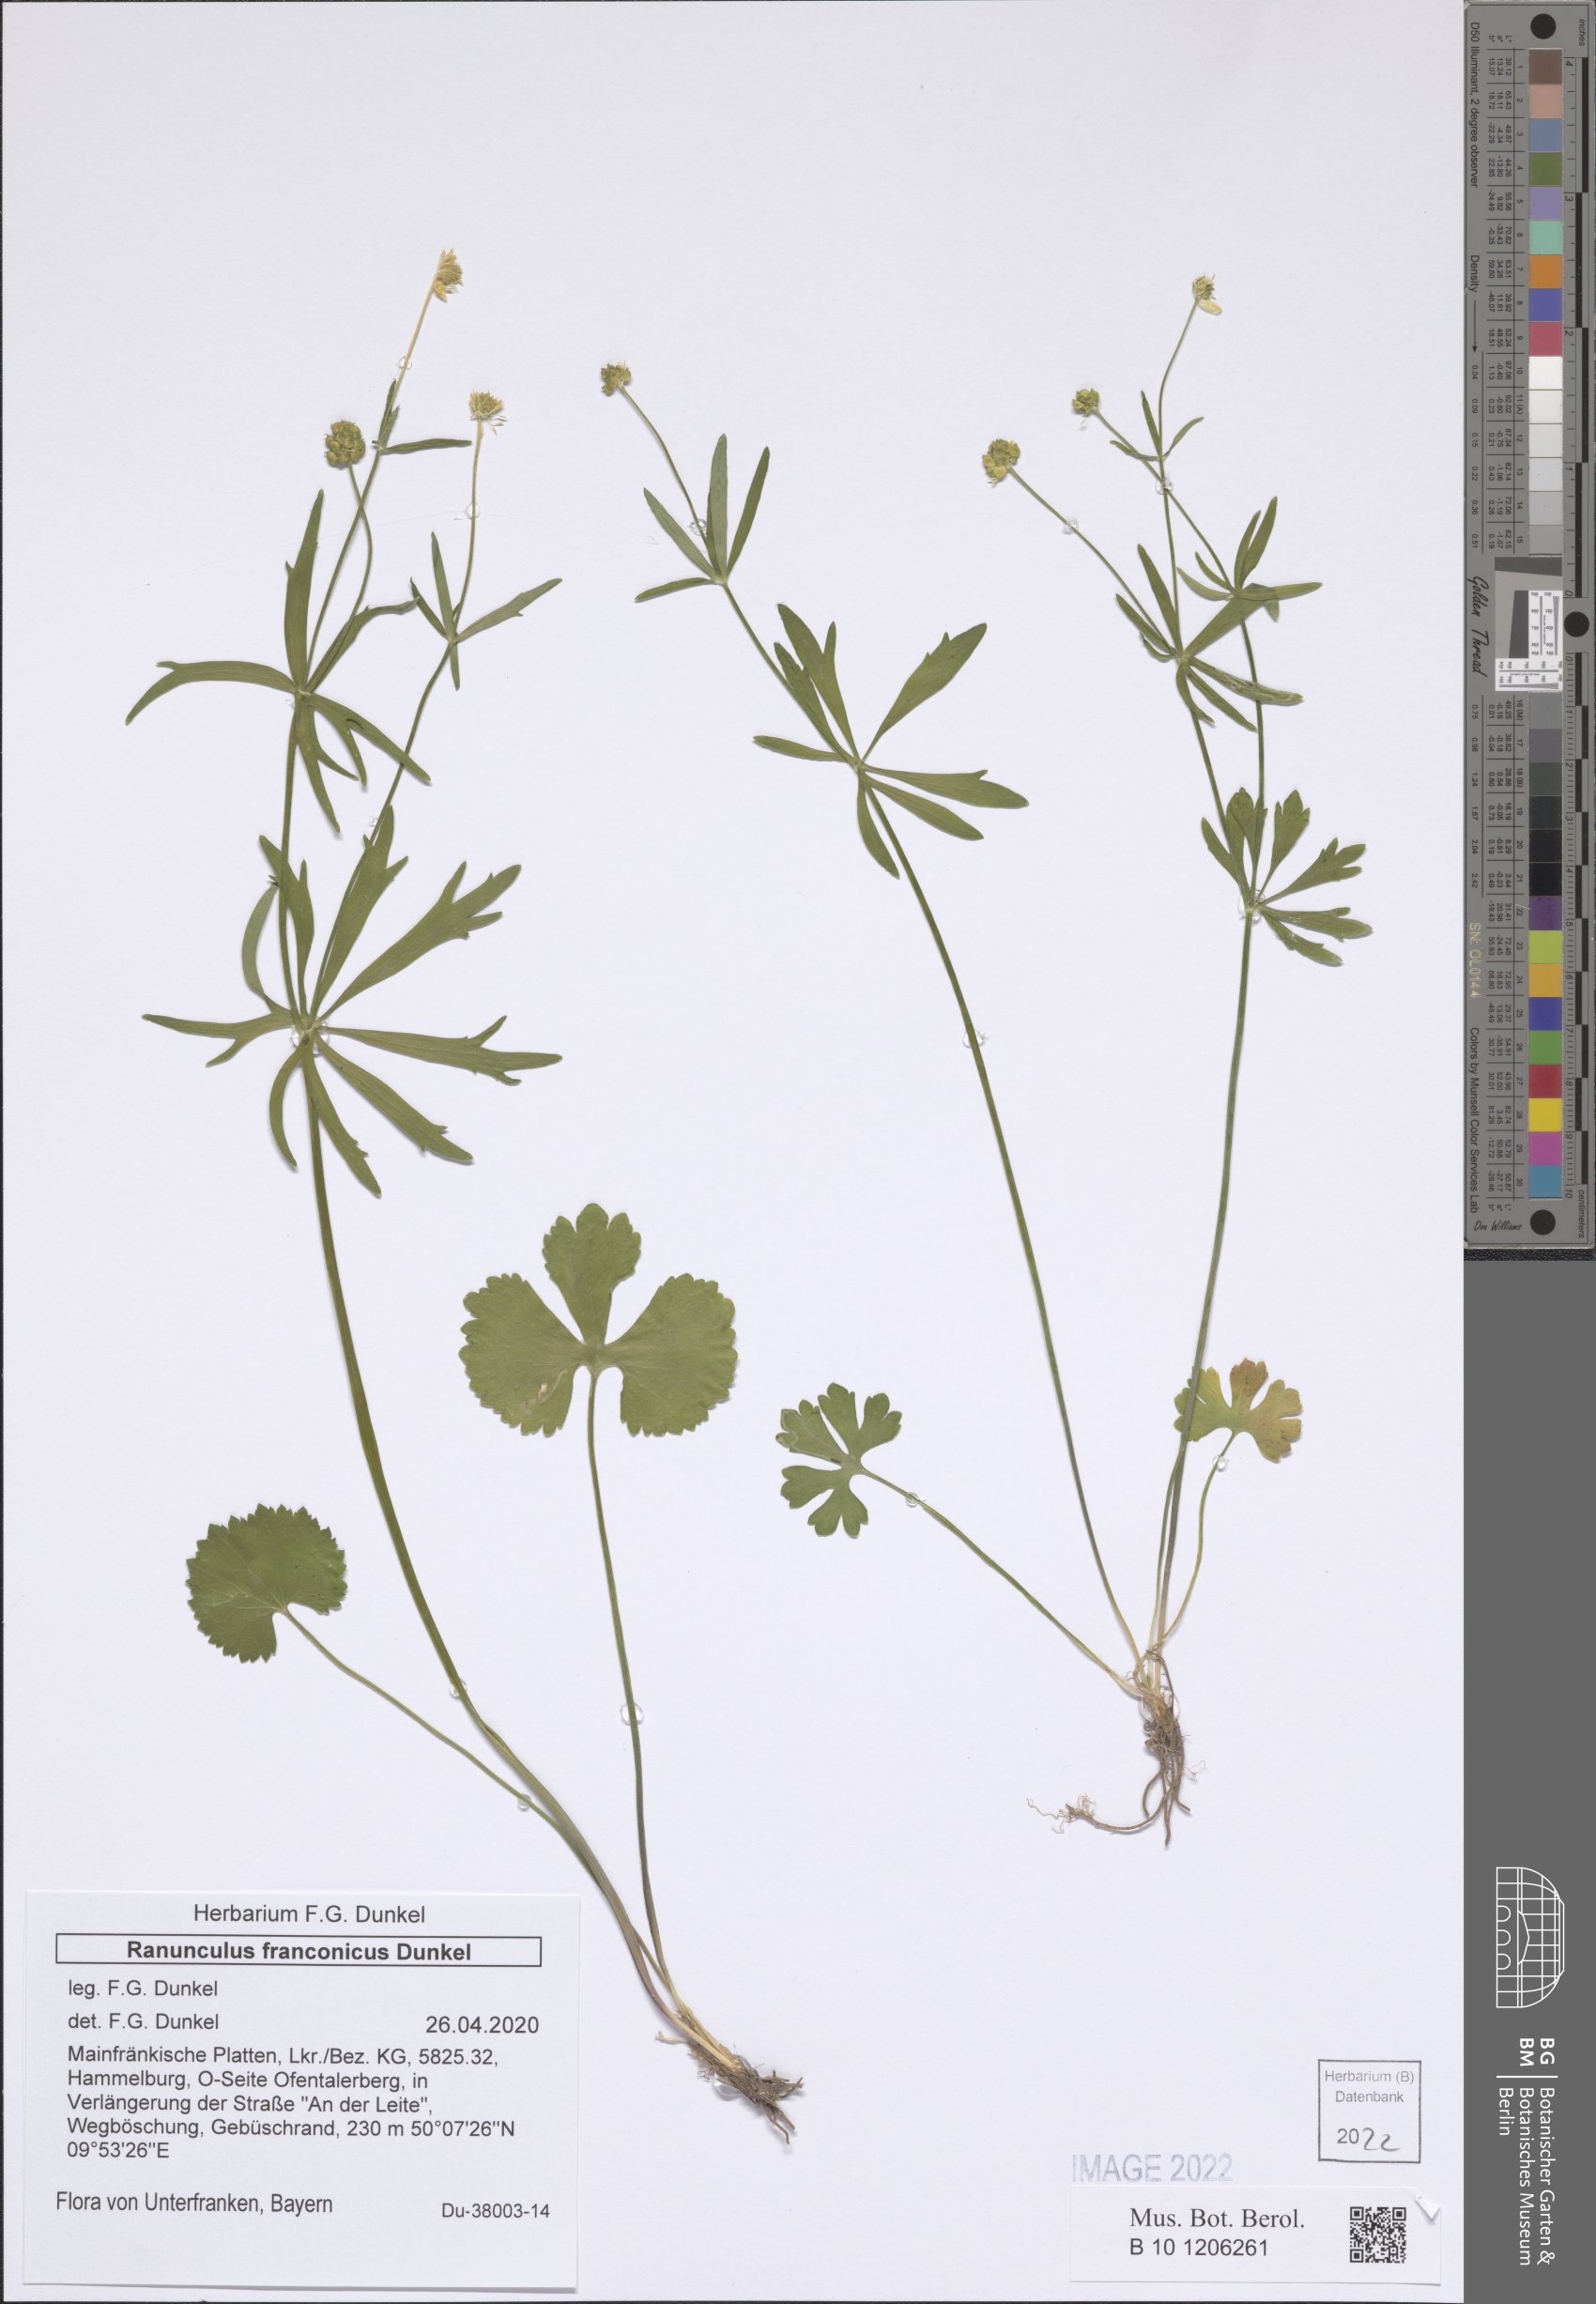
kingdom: Plantae
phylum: Tracheophyta
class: Magnoliopsida
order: Ranunculales
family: Ranunculaceae
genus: Ranunculus
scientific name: Ranunculus franconicus
